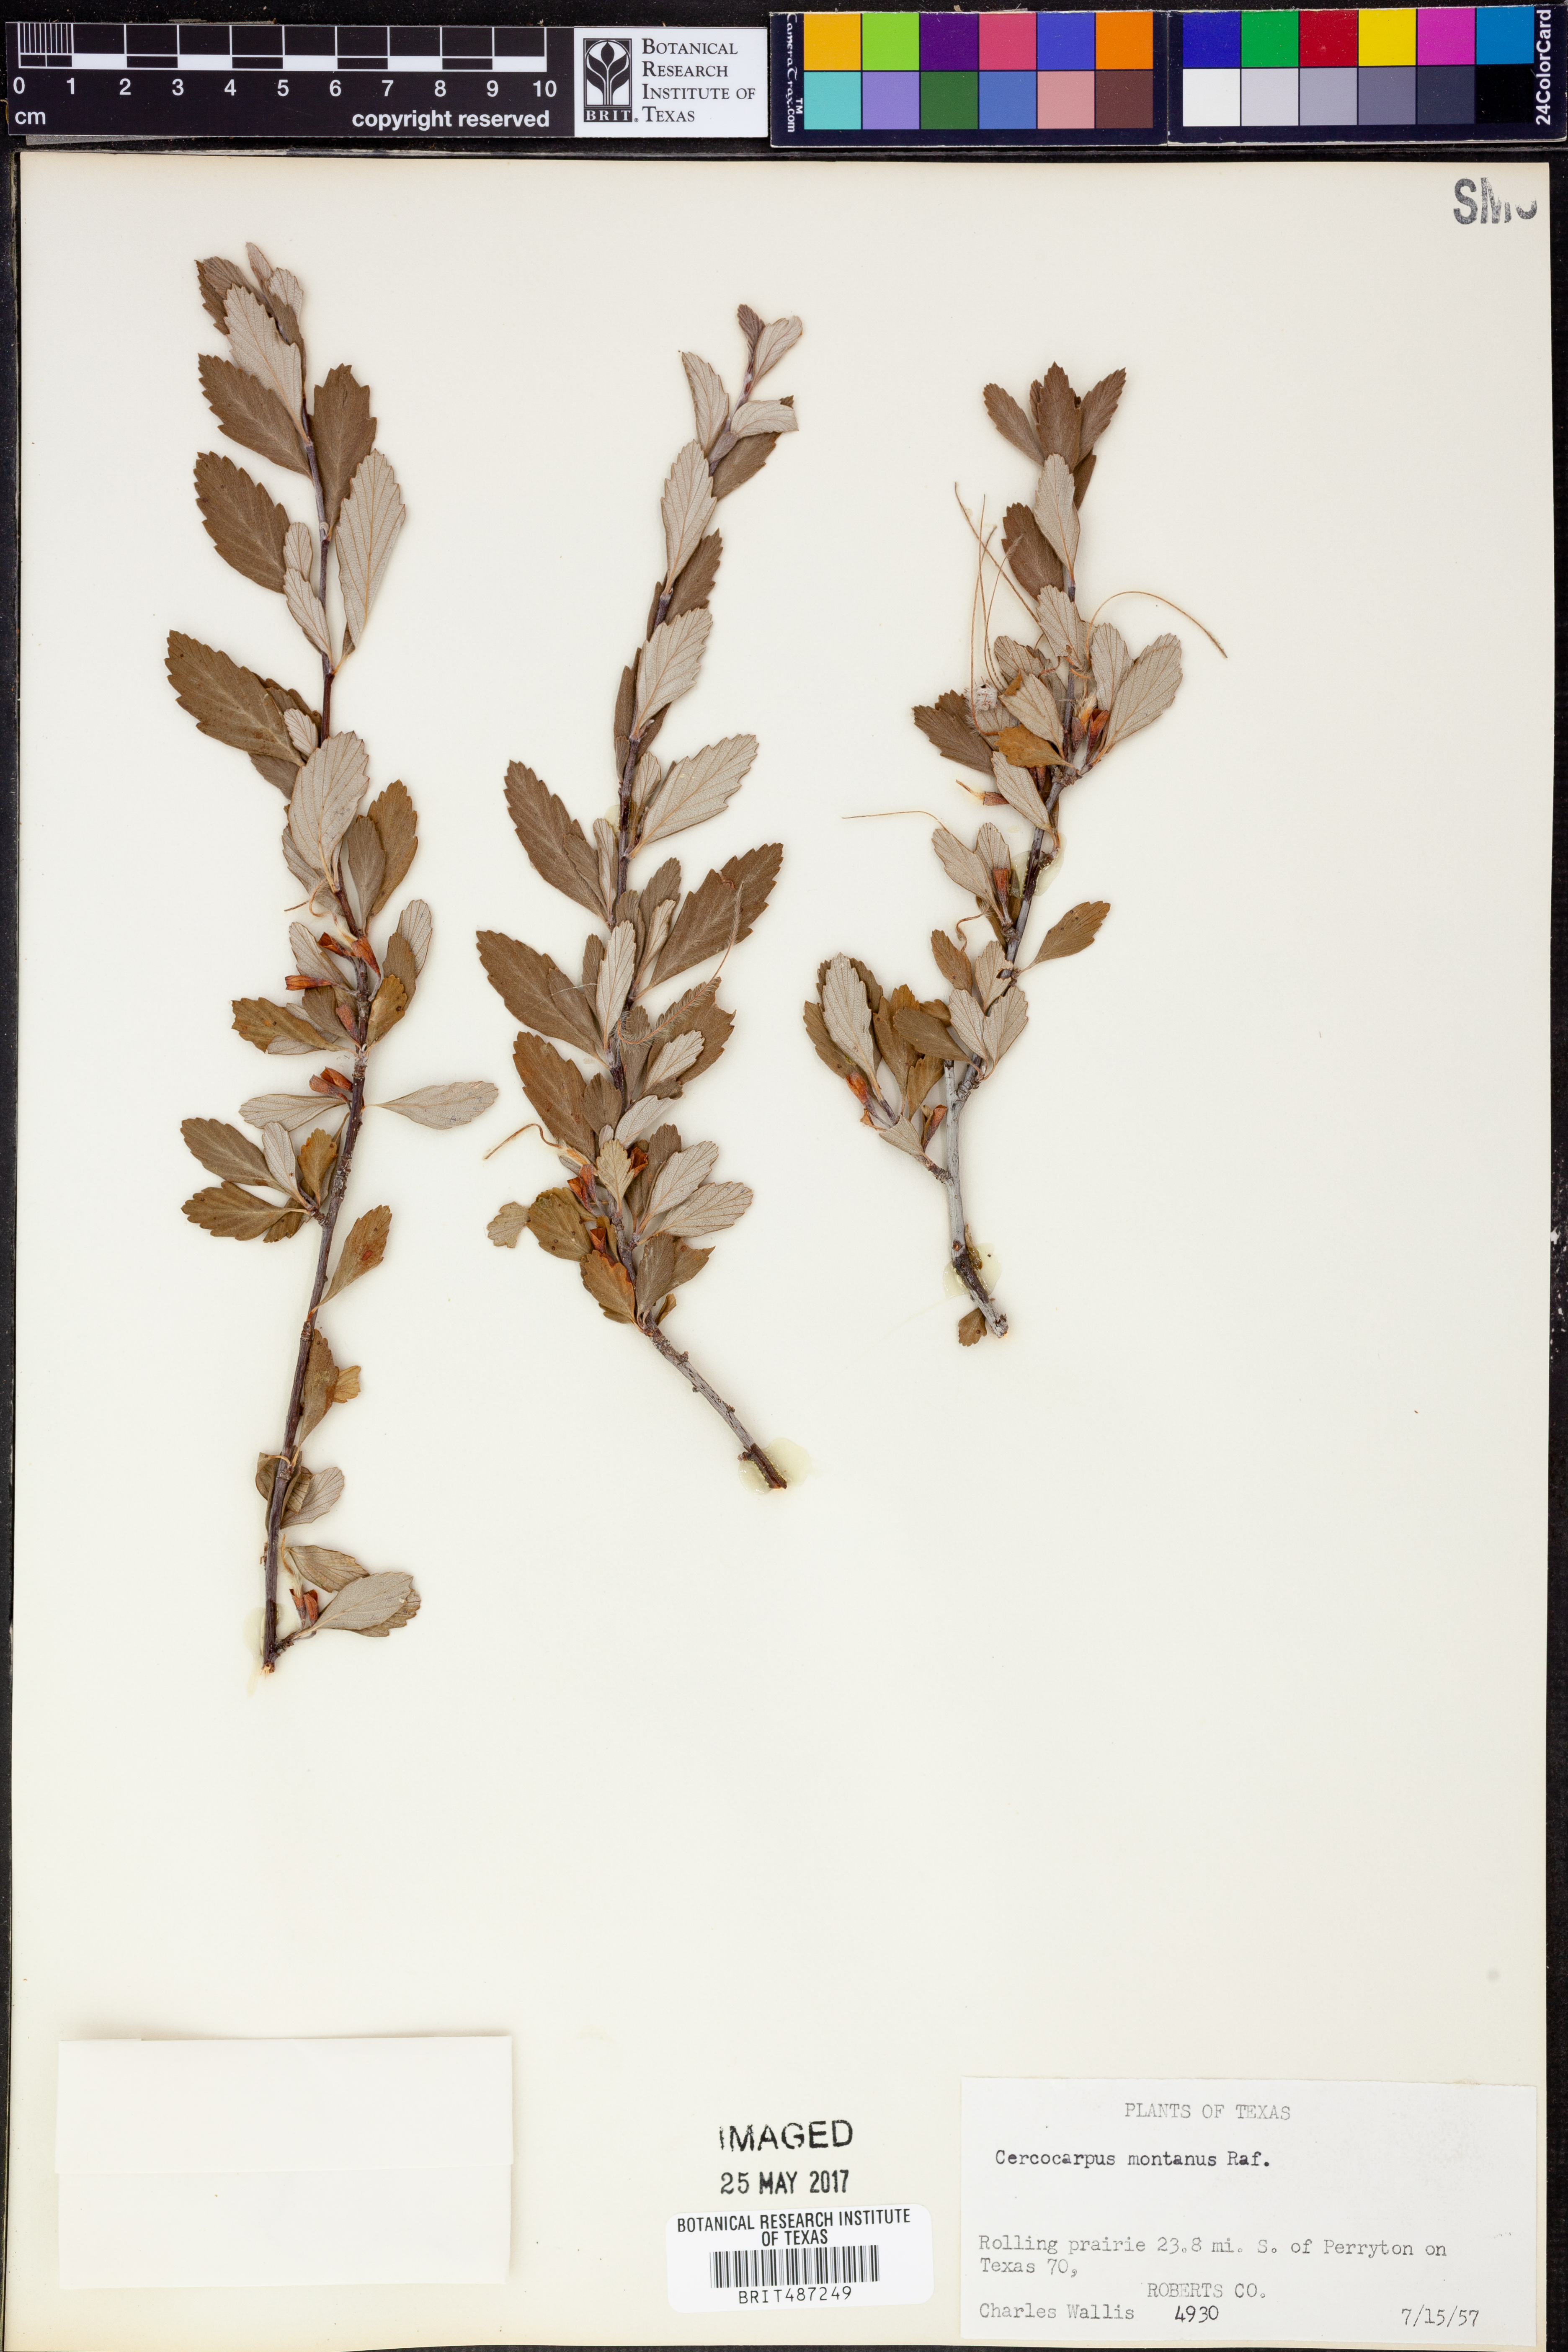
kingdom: Plantae
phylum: Tracheophyta
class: Magnoliopsida
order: Rosales
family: Rosaceae
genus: Cercocarpus
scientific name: Cercocarpus montanus
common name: Alder-leaf cercocarpus
